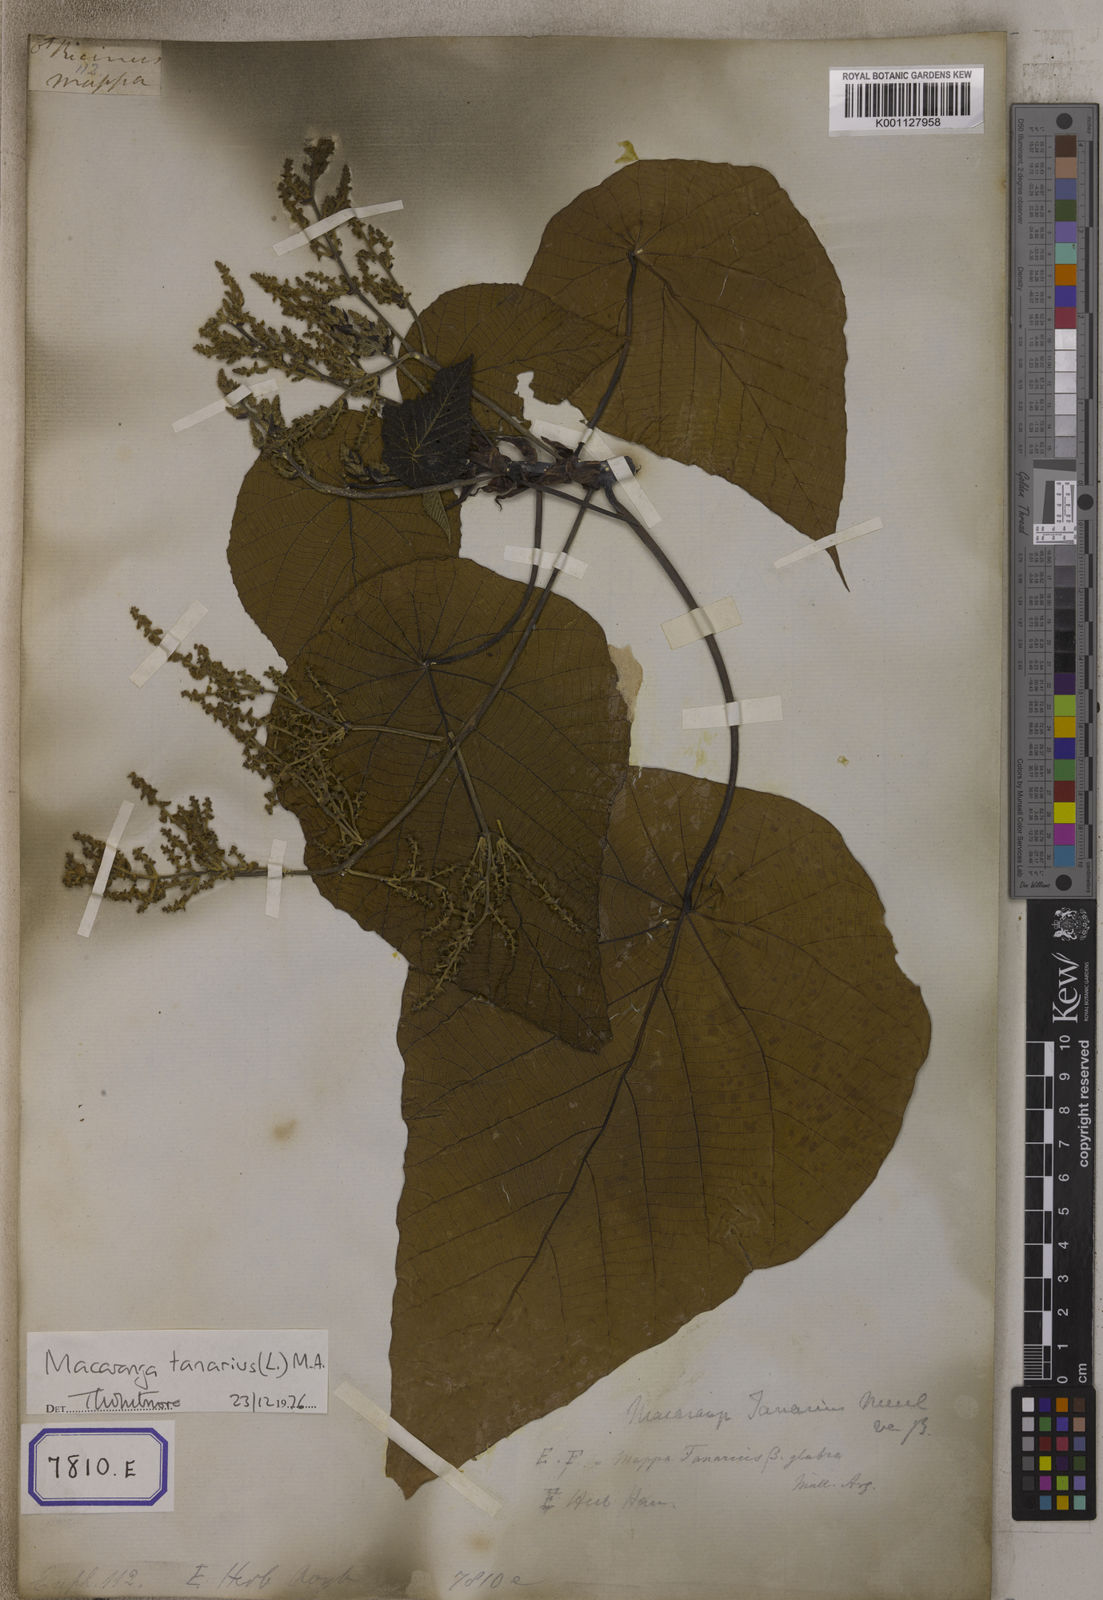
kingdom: Plantae
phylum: Tracheophyta
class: Magnoliopsida
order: Malpighiales
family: Euphorbiaceae
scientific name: Euphorbiaceae
